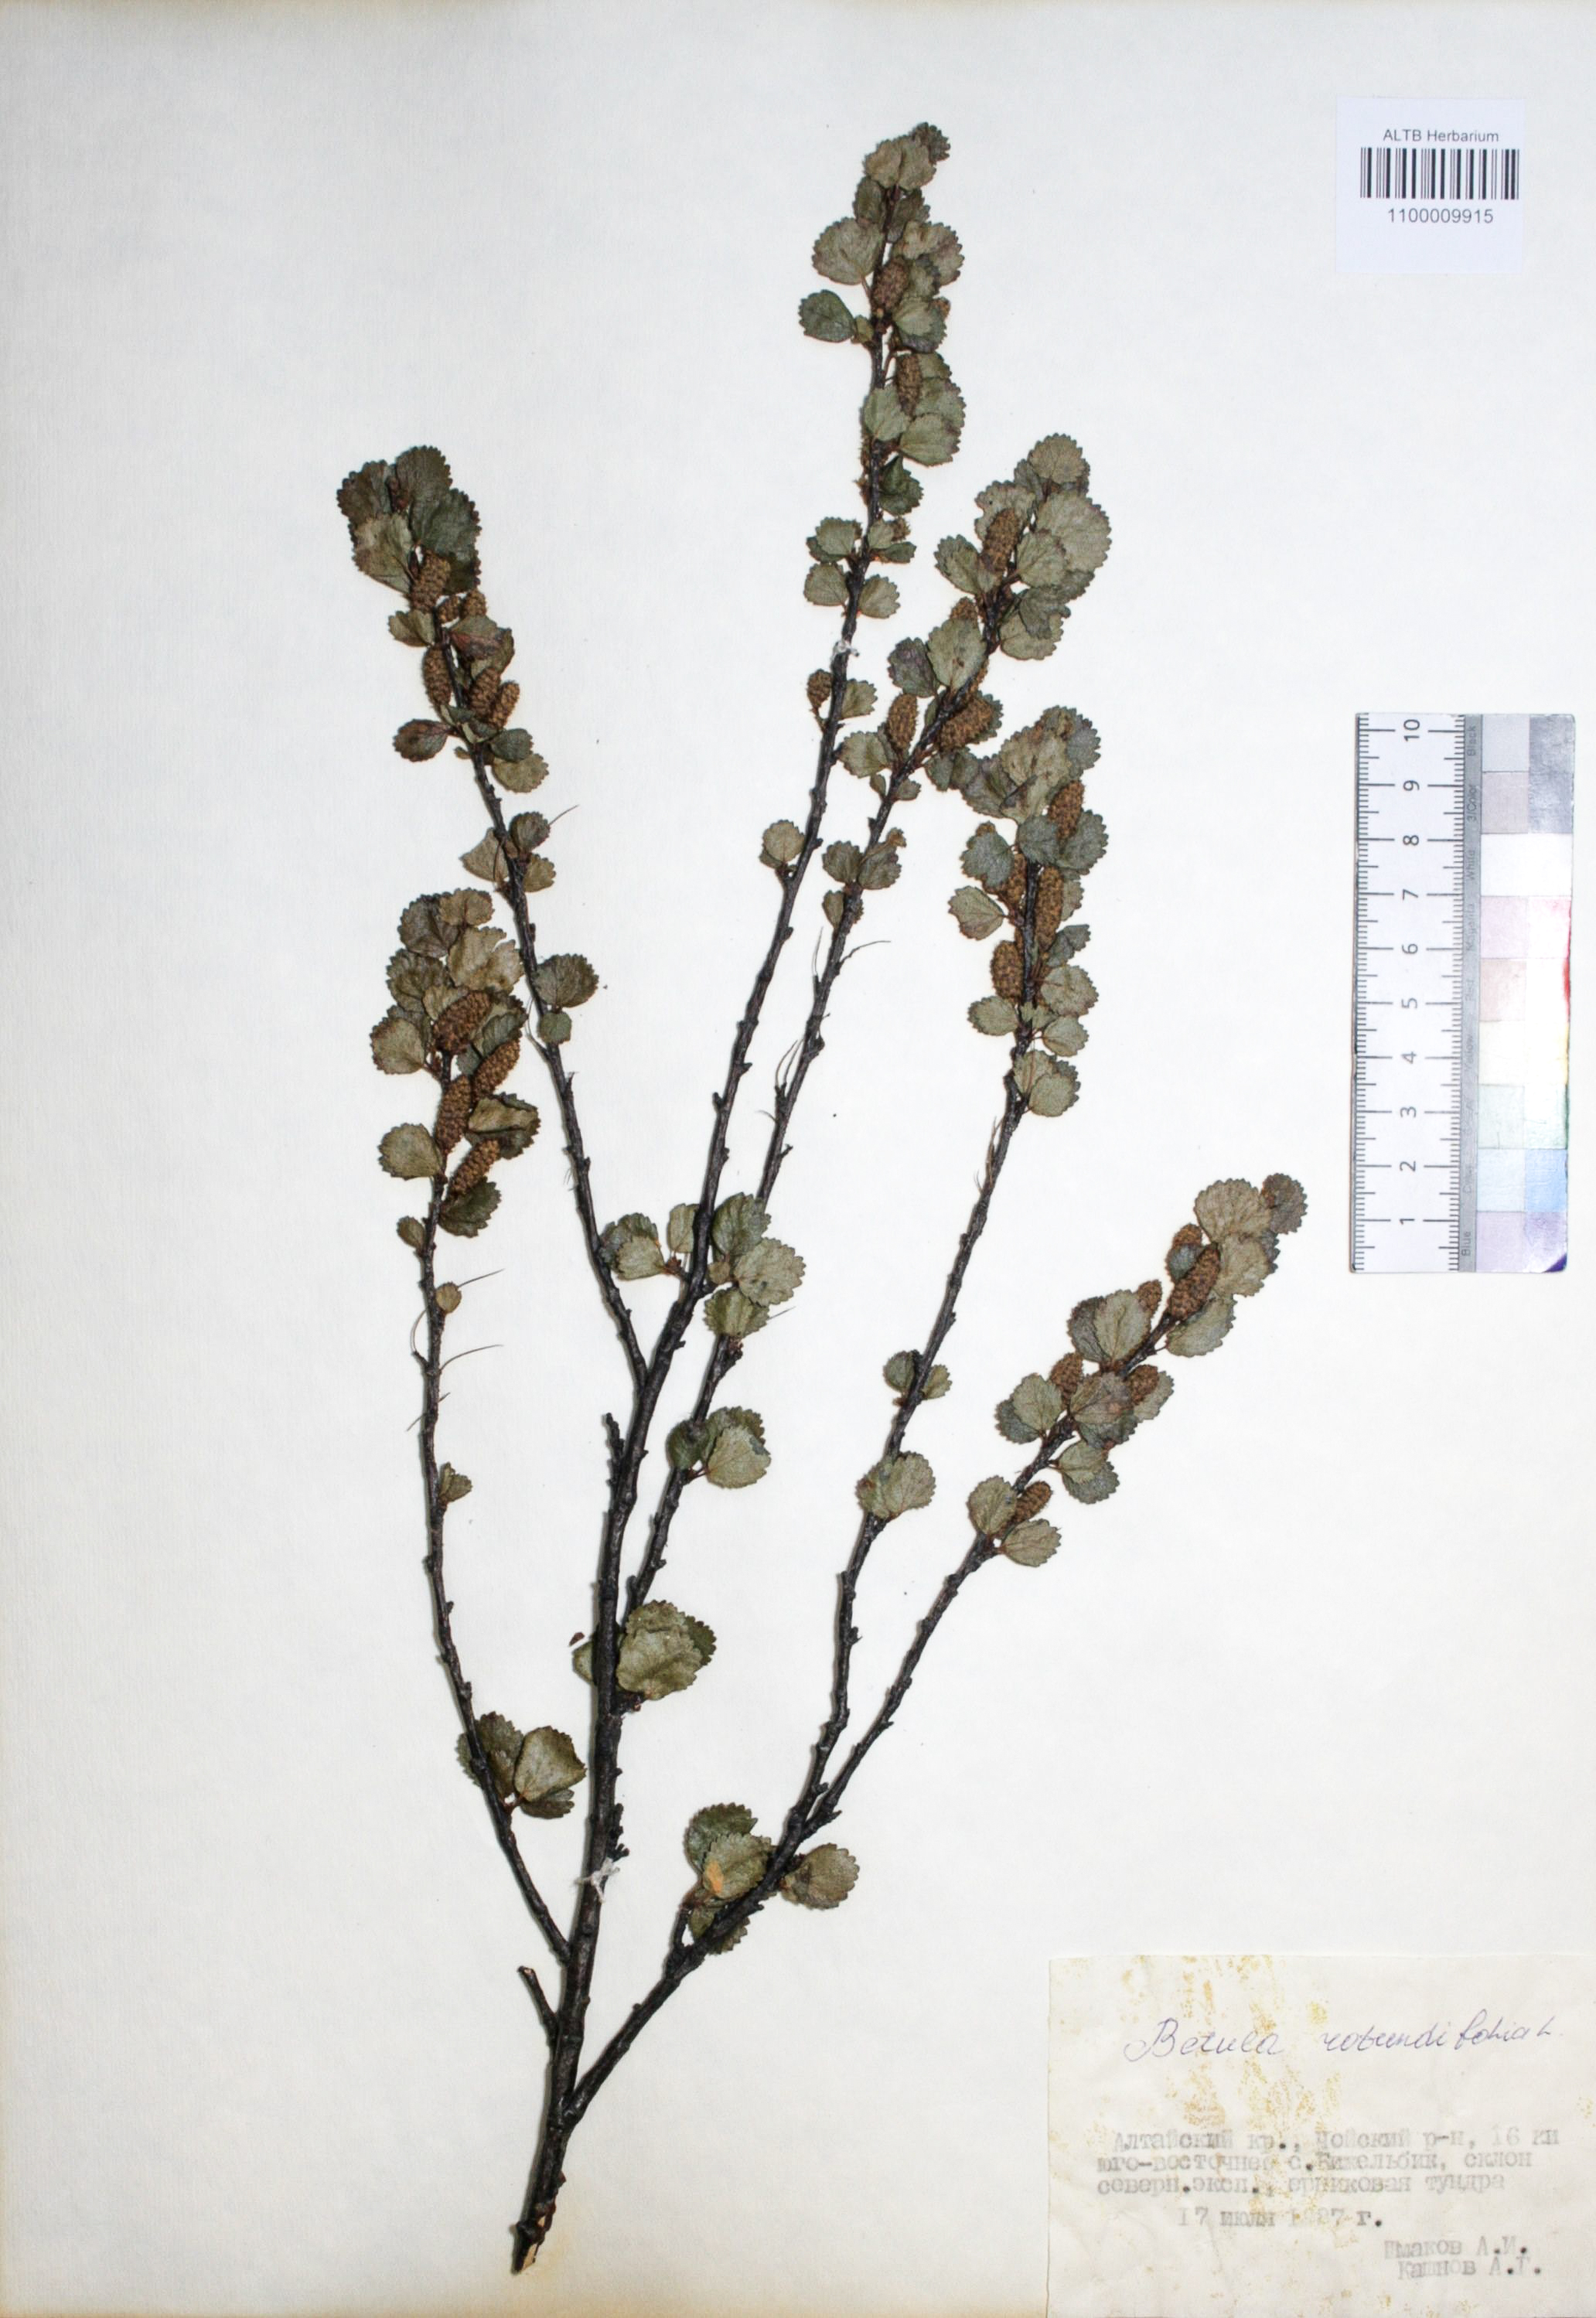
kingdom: Plantae
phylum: Tracheophyta
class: Magnoliopsida
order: Fagales
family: Betulaceae
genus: Betula
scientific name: Betula glandulosa
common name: Dwarf birch
